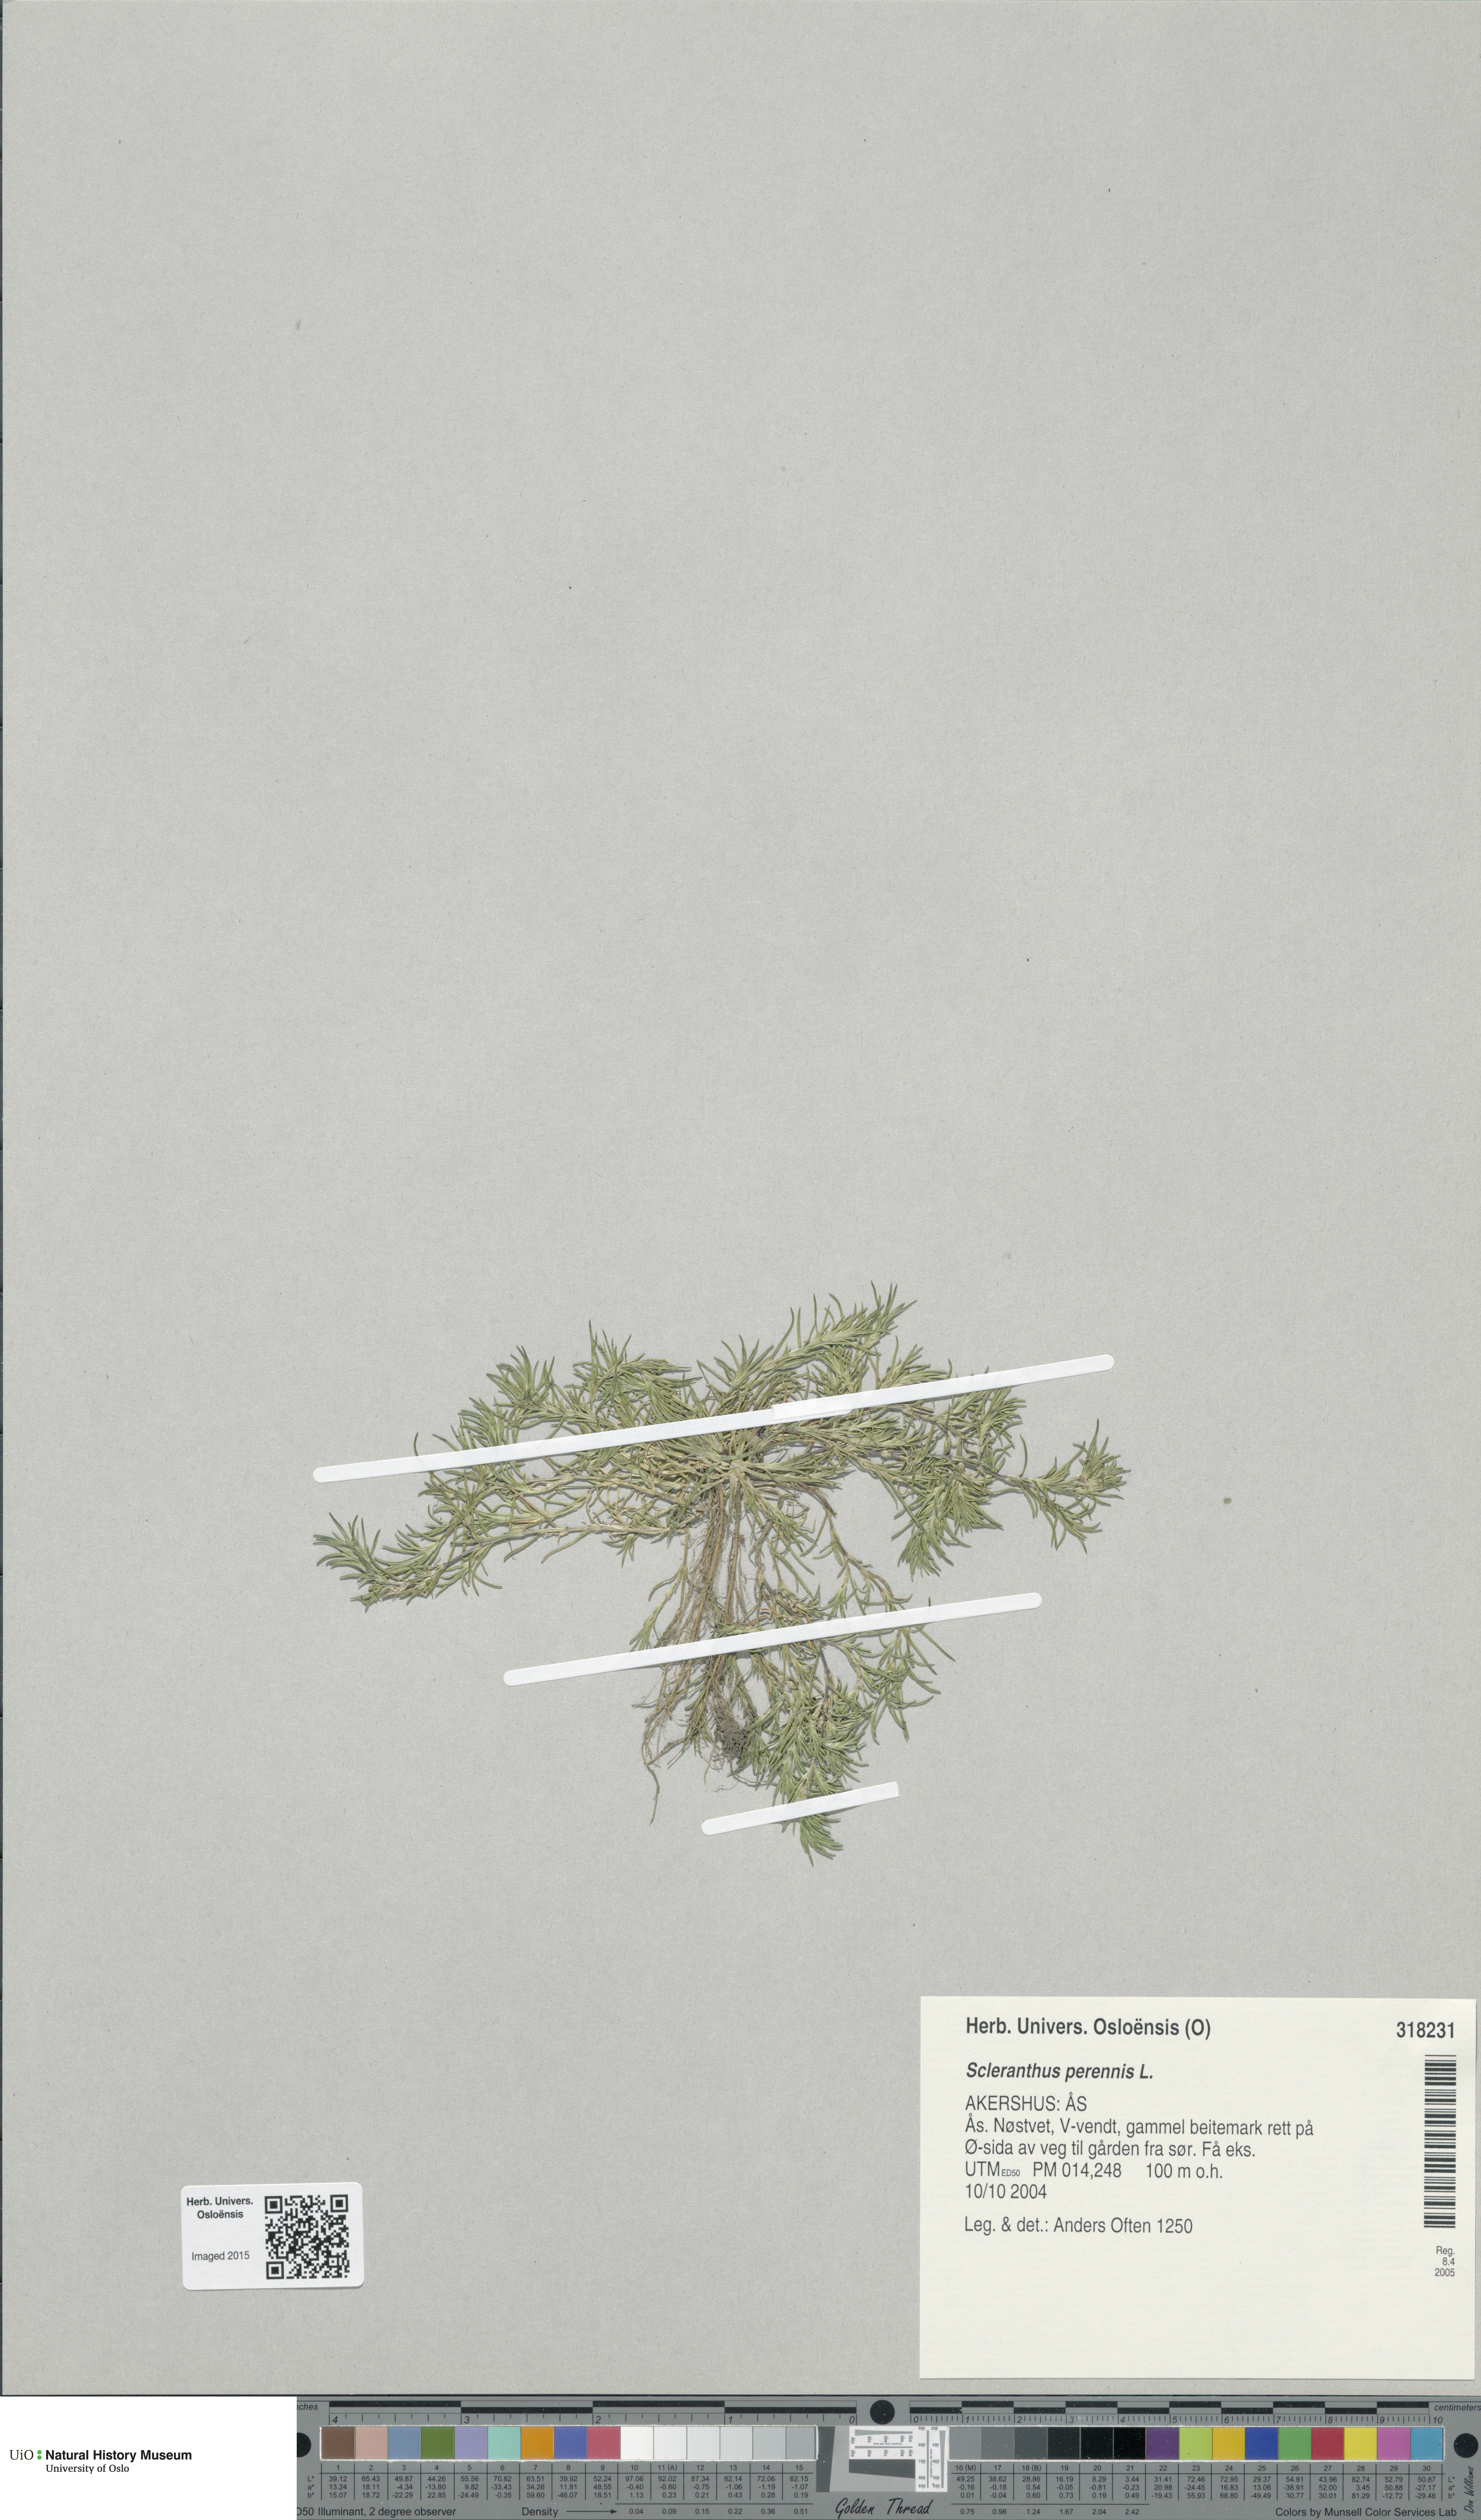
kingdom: Plantae
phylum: Tracheophyta
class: Magnoliopsida
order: Caryophyllales
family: Caryophyllaceae
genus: Scleranthus
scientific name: Scleranthus perennis
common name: Perennial knawel
